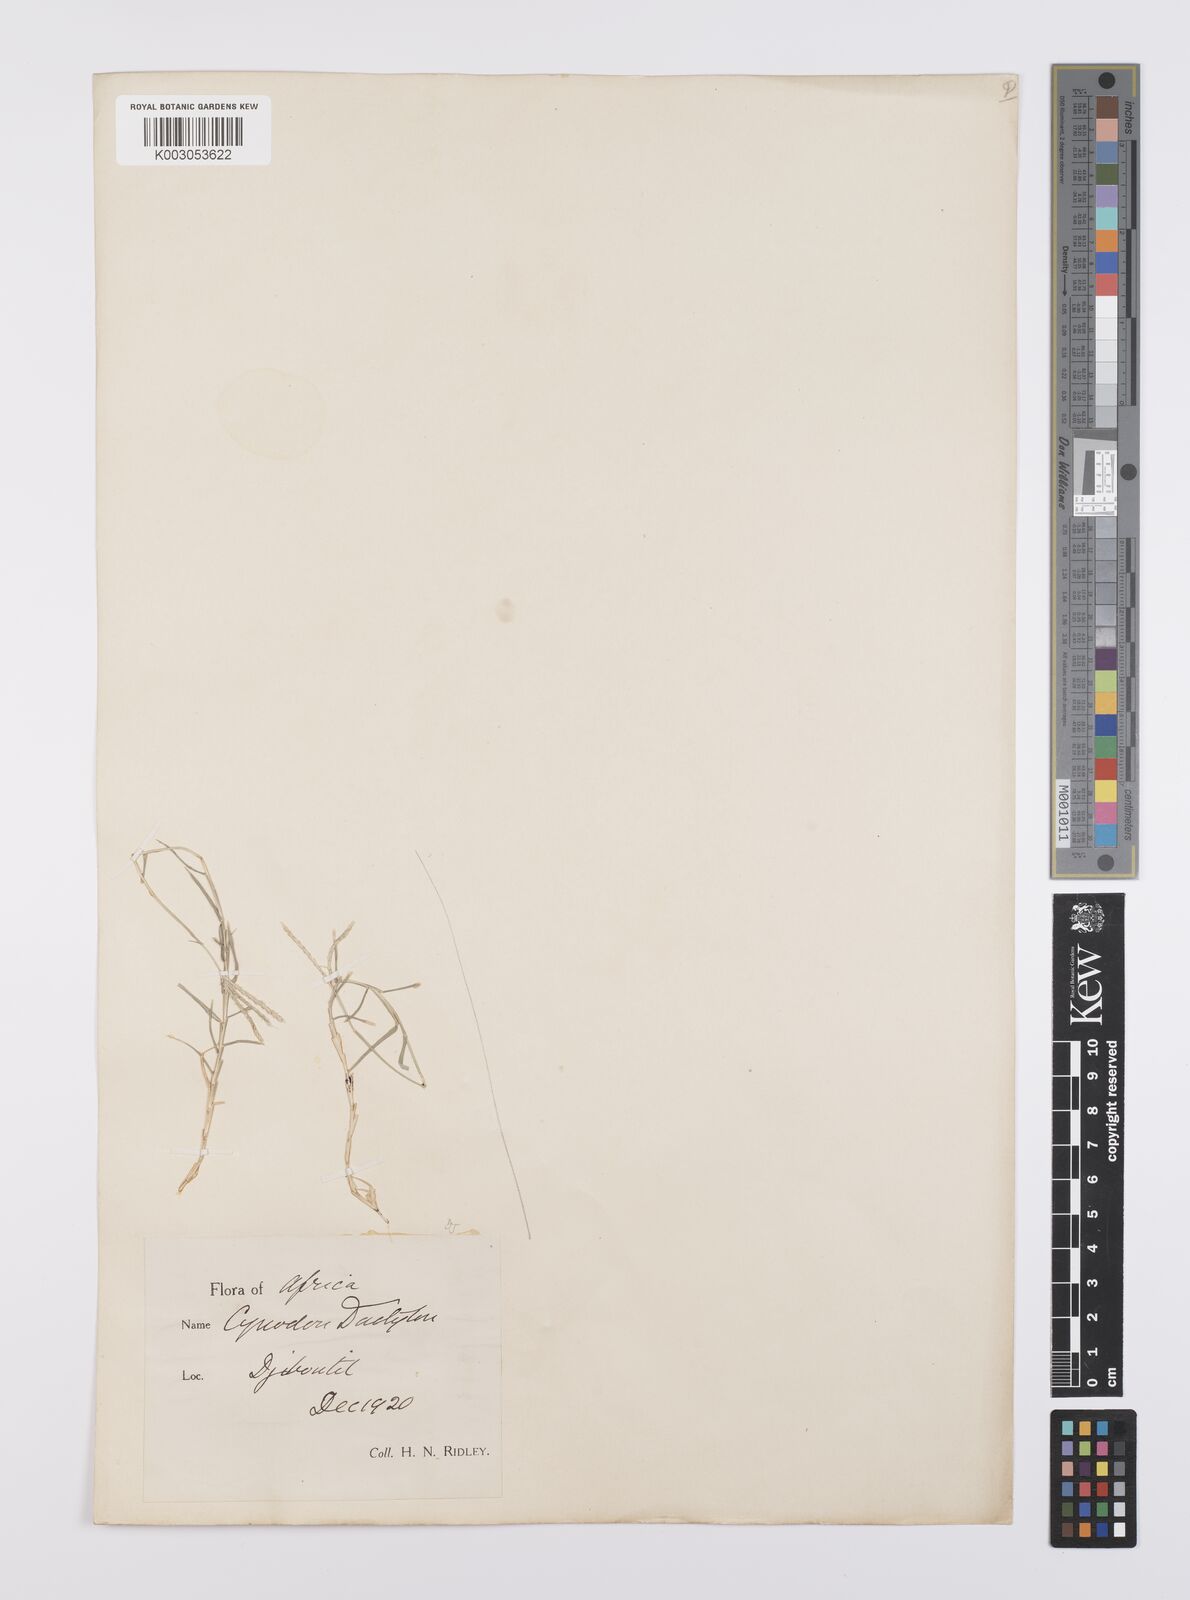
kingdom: Plantae
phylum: Tracheophyta
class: Liliopsida
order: Poales
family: Poaceae
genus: Cynodon
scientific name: Cynodon dactylon
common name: Bermuda grass
